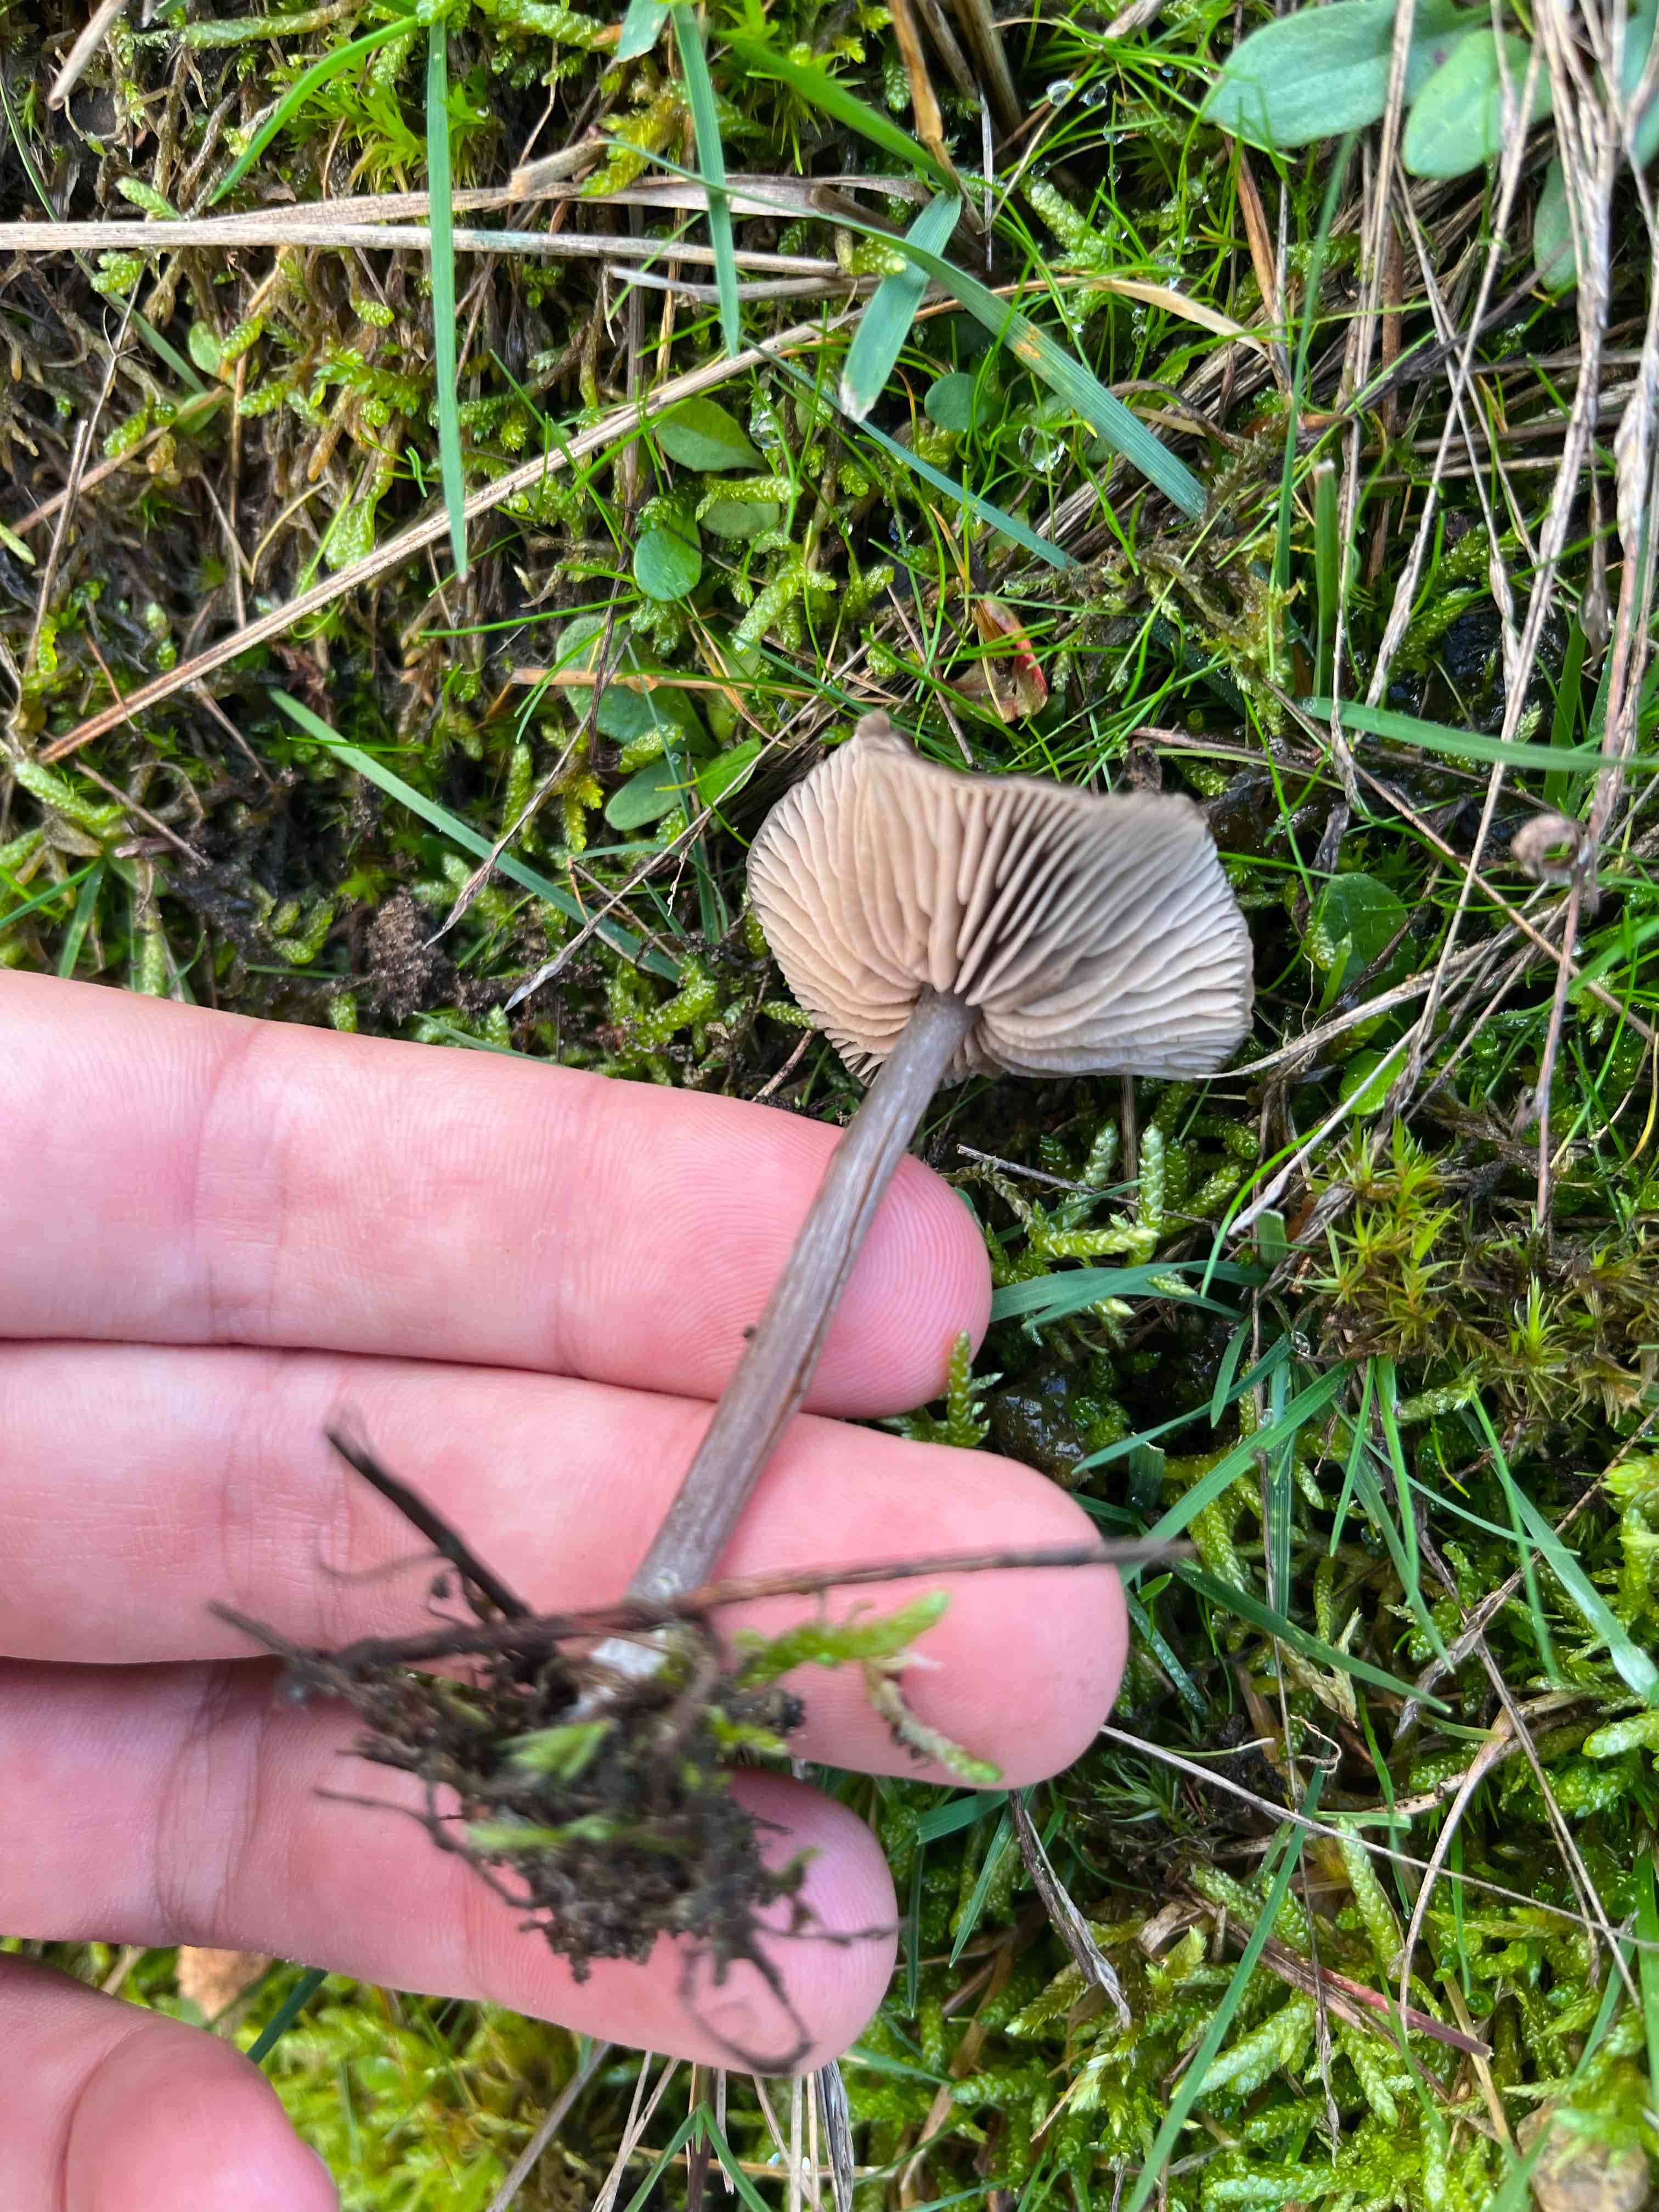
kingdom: Fungi
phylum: Basidiomycota
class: Agaricomycetes
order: Agaricales
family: Entolomataceae
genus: Entoloma
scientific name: Entoloma
